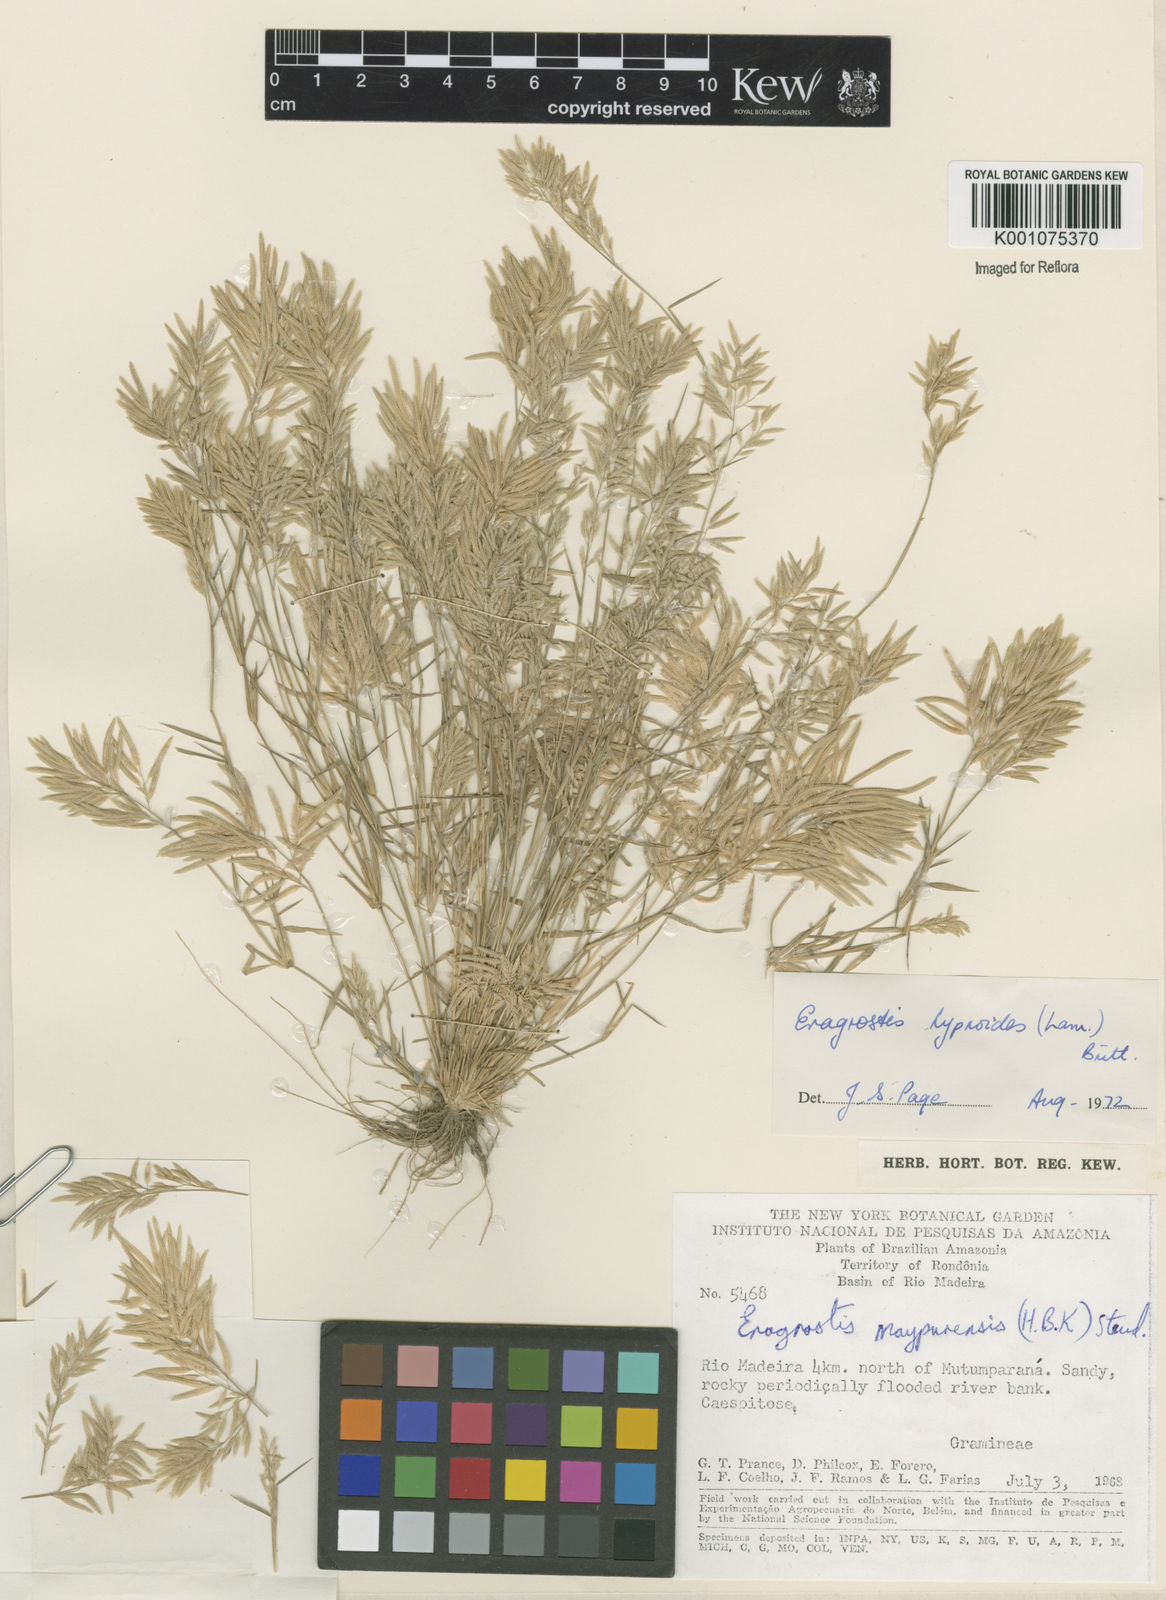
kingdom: Plantae
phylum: Tracheophyta
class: Liliopsida
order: Poales
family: Poaceae
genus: Eragrostis
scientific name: Eragrostis
